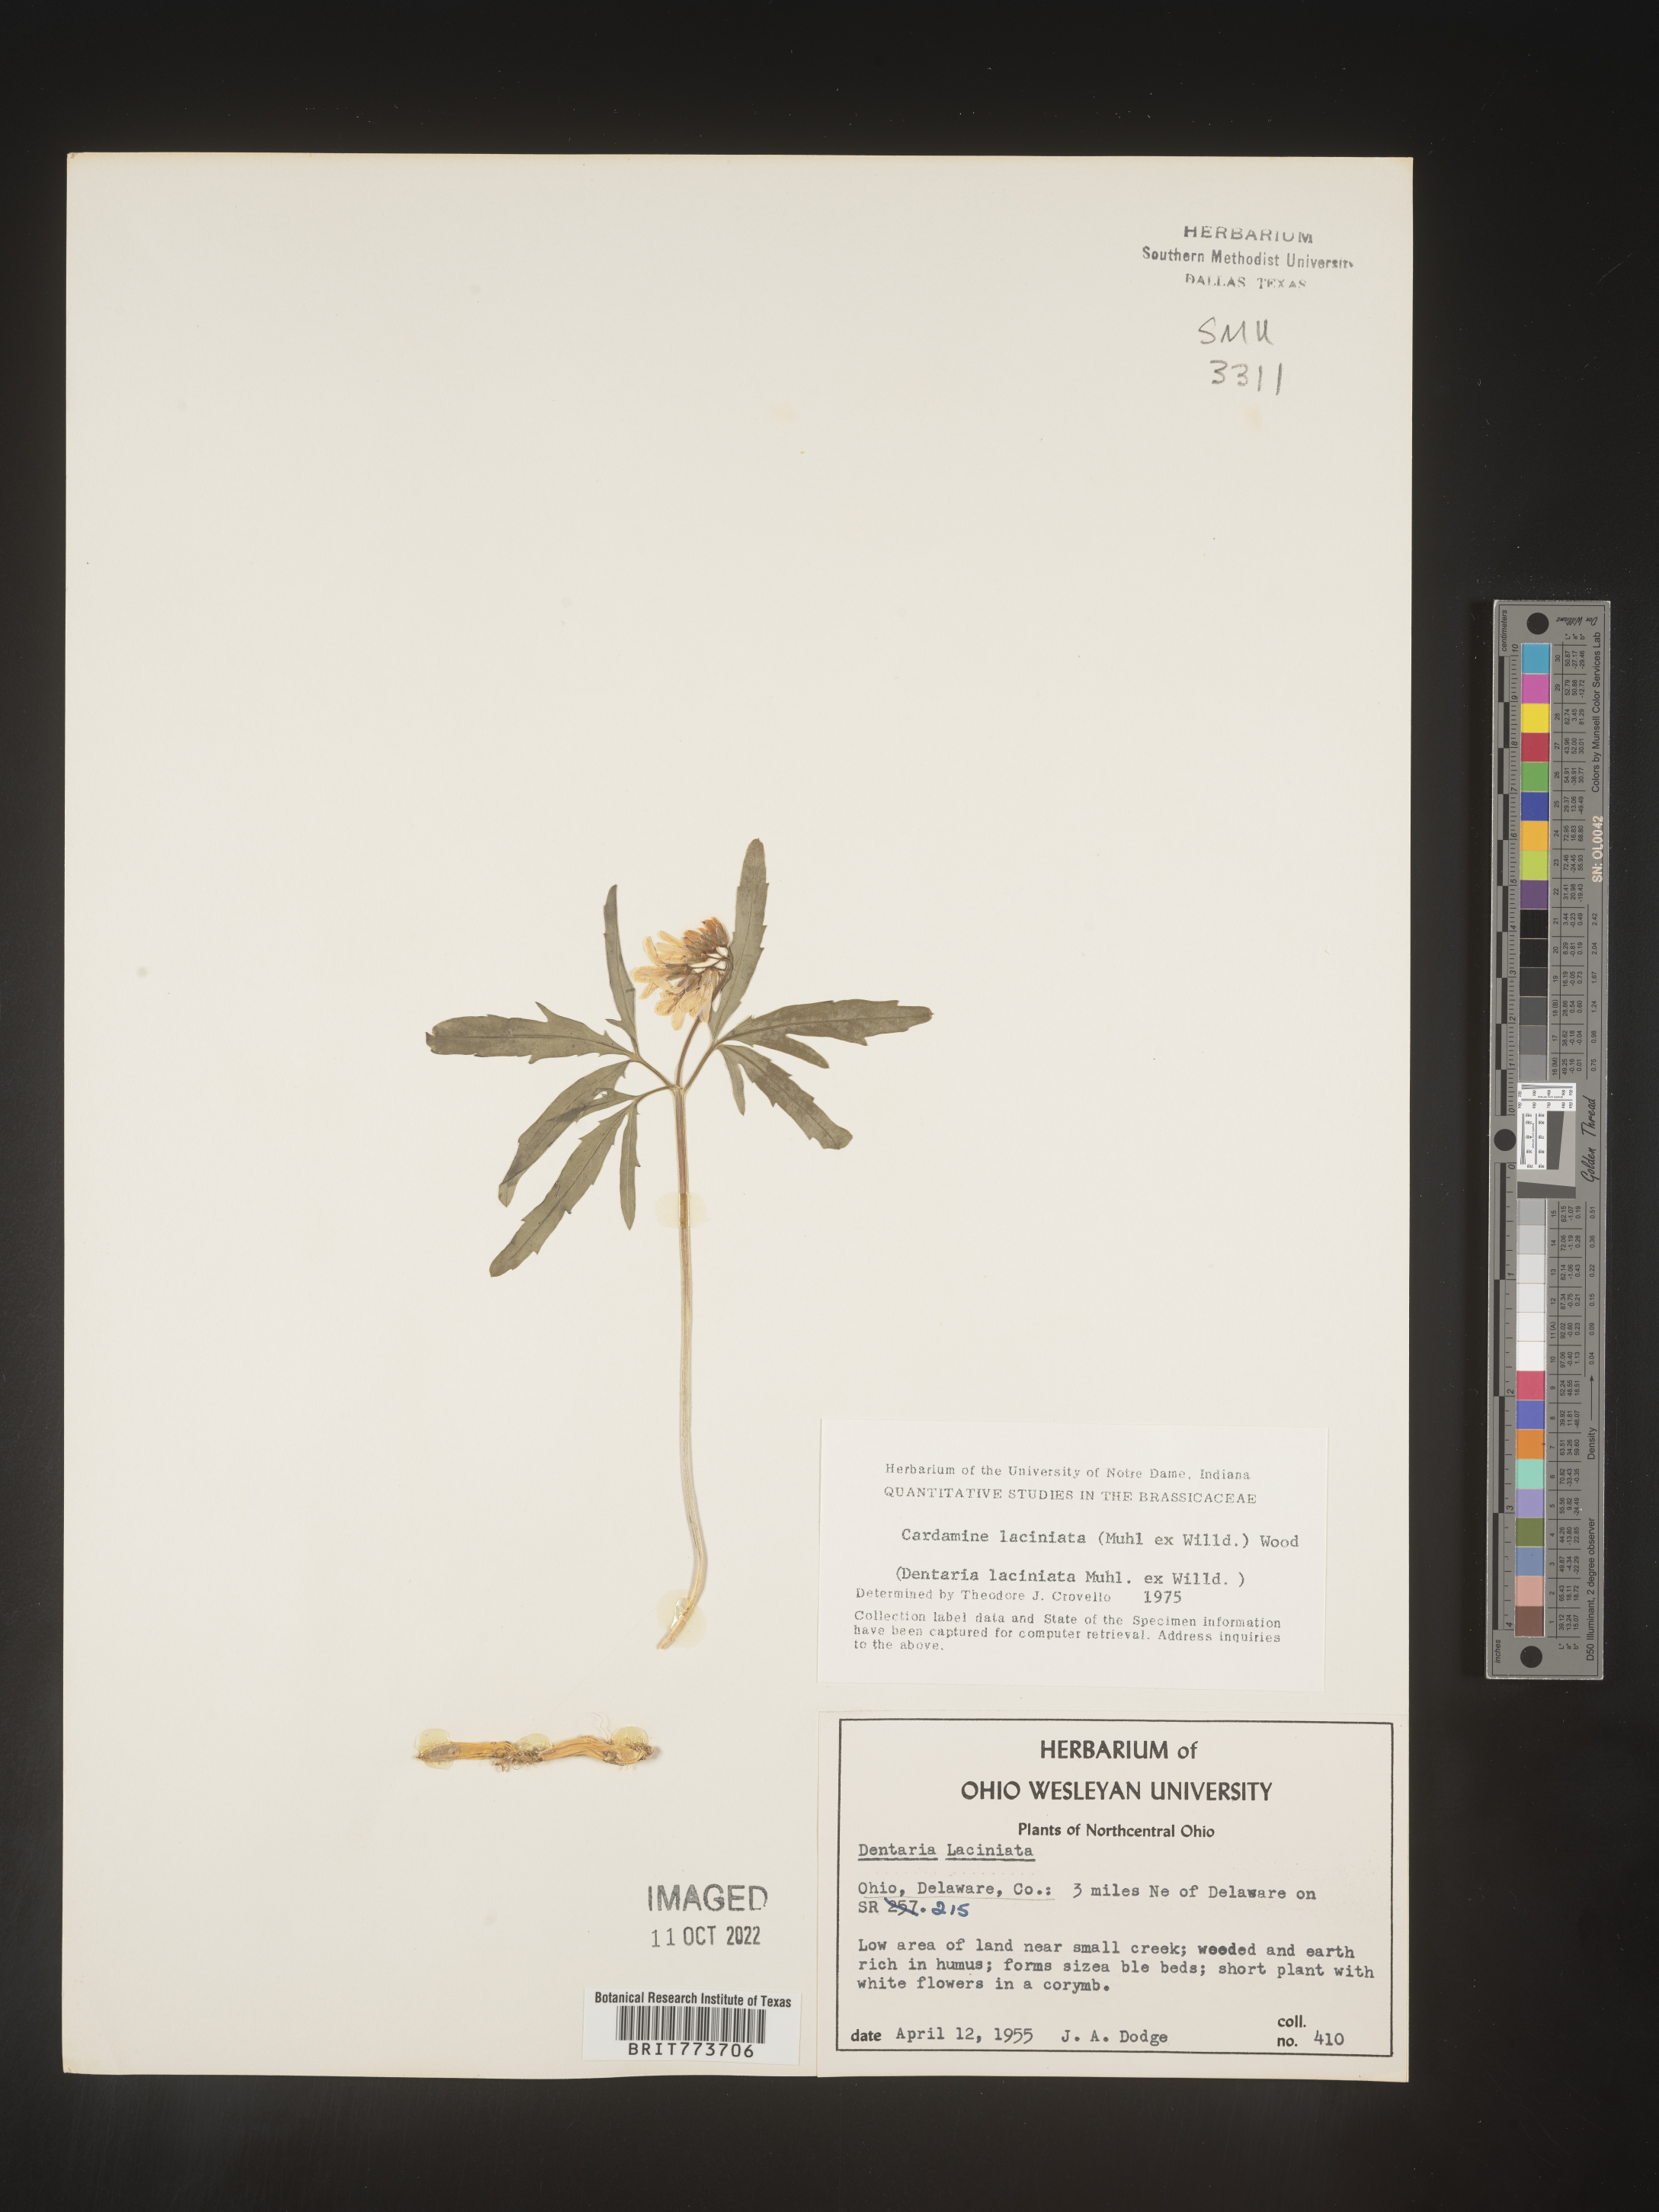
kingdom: Plantae
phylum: Tracheophyta
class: Magnoliopsida
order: Brassicales
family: Brassicaceae
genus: Rorippa
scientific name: Rorippa laciniata
